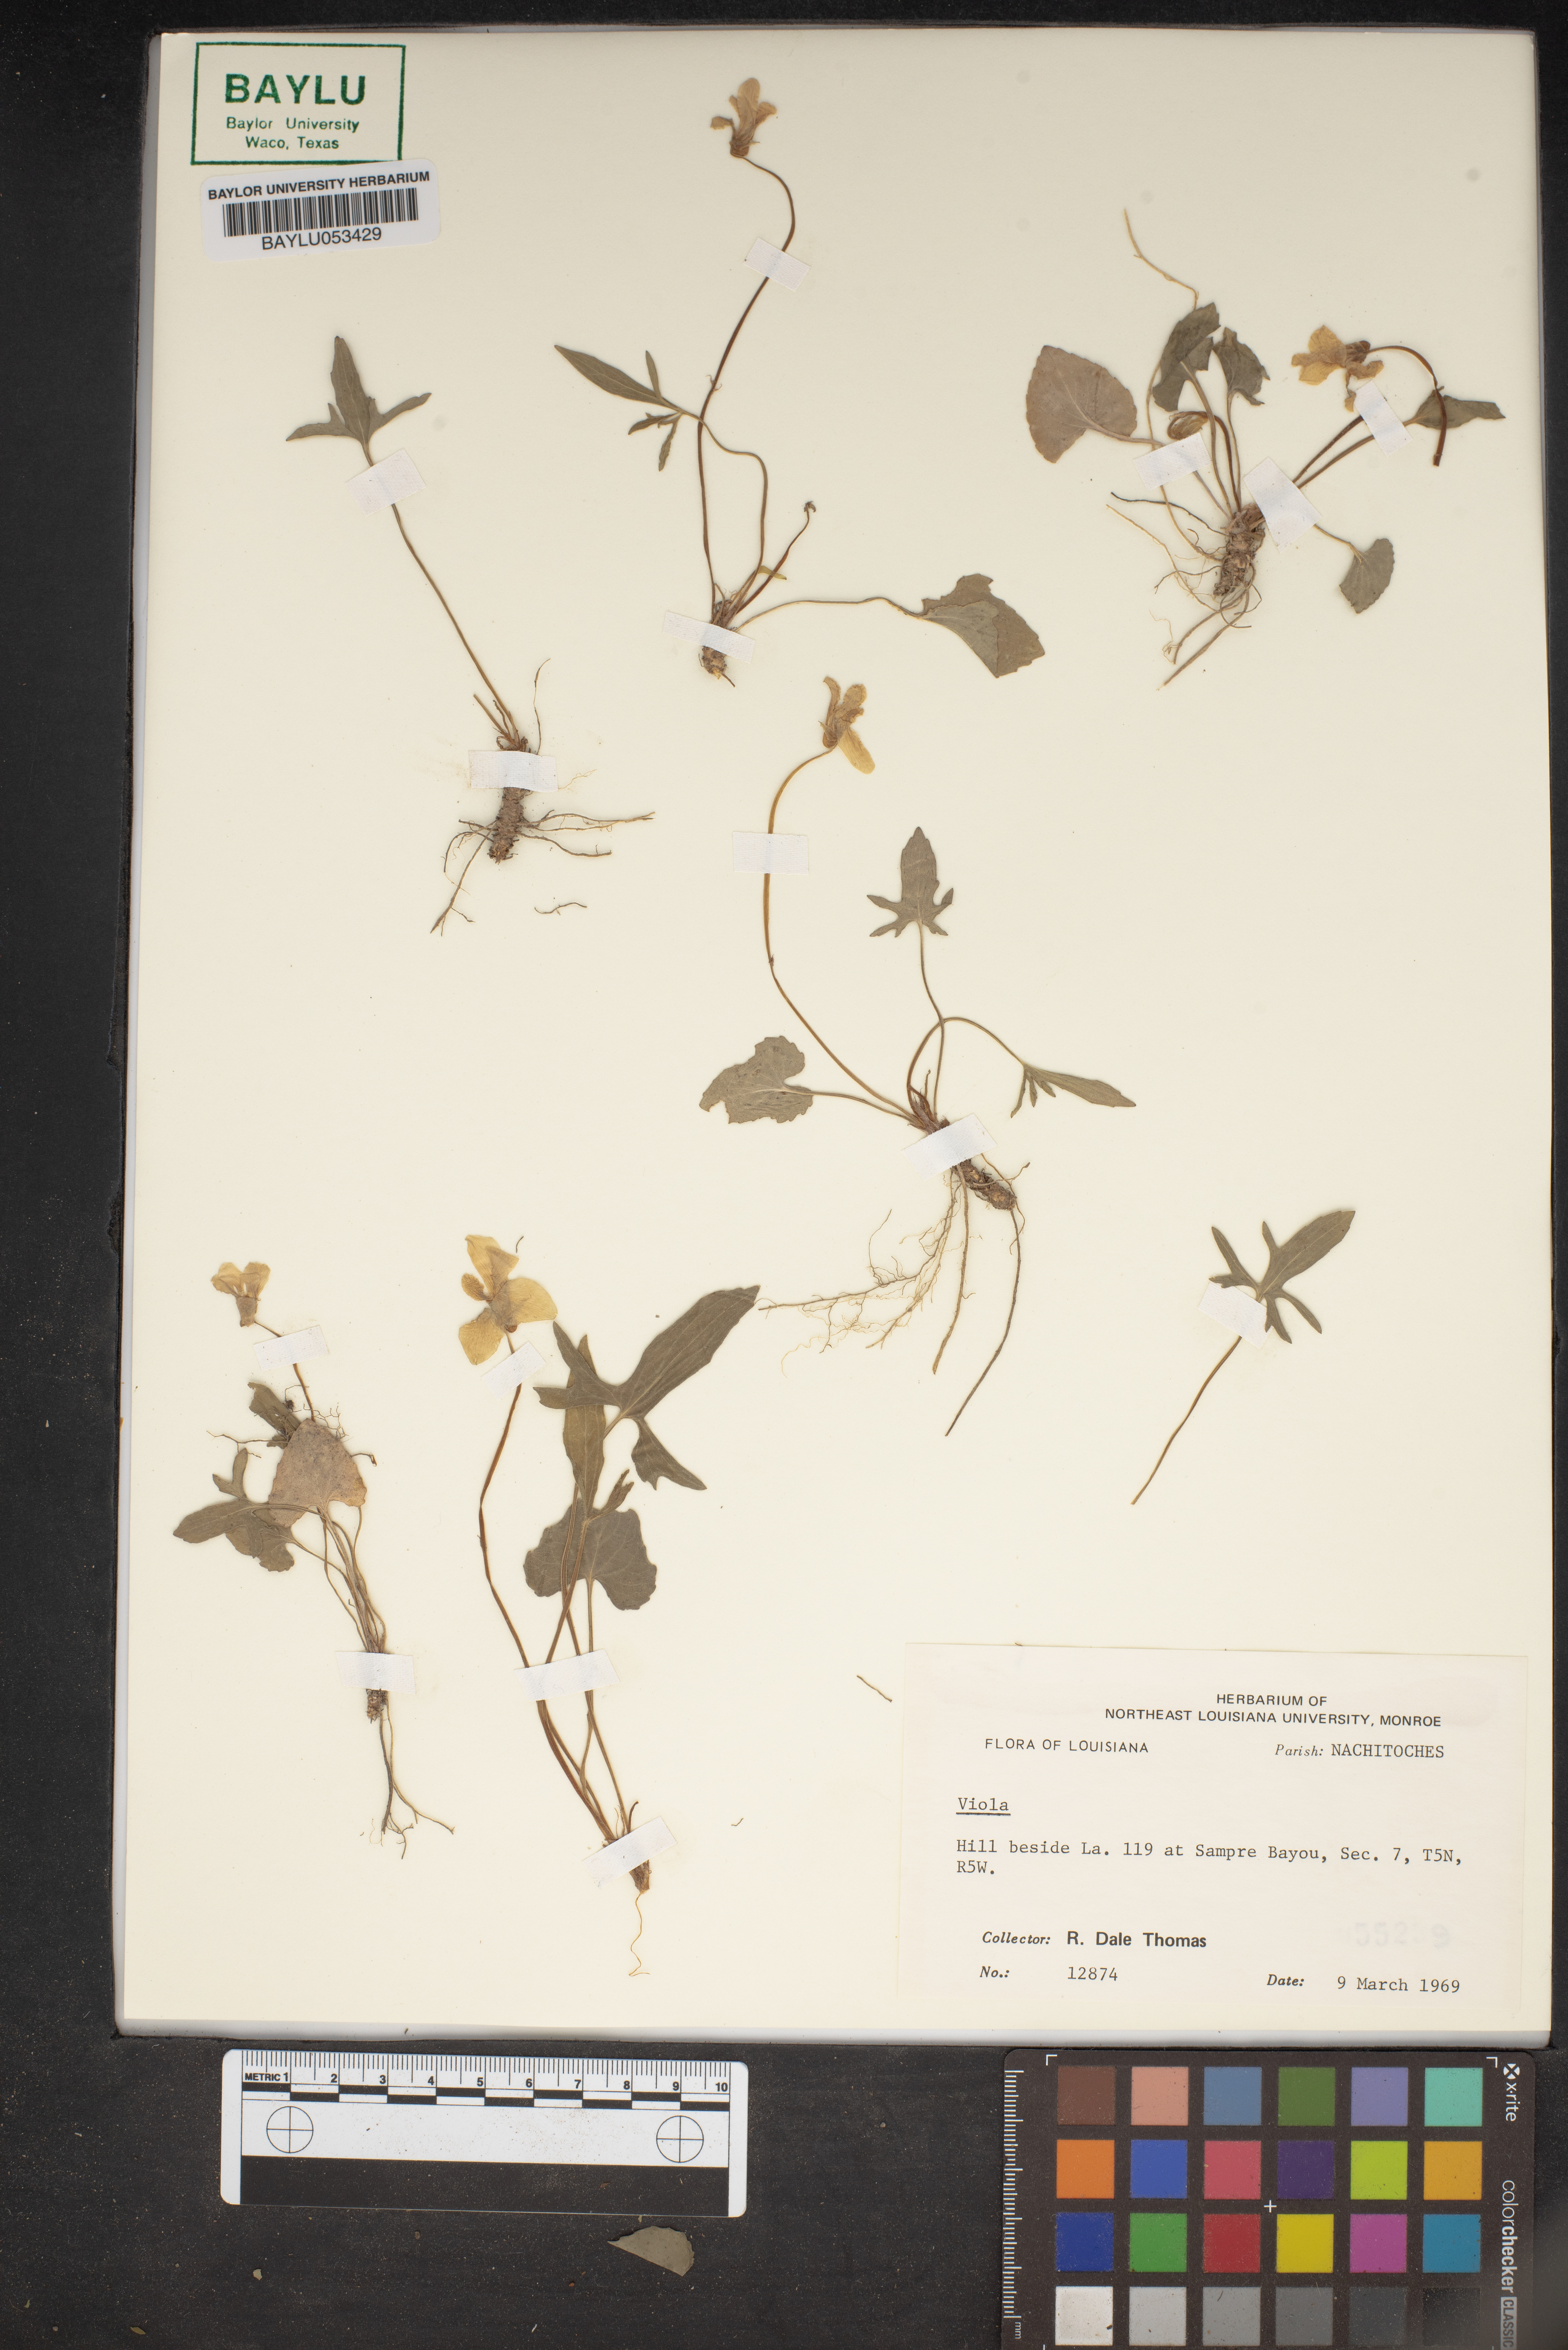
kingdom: Plantae
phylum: Tracheophyta
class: Magnoliopsida
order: Malpighiales
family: Violaceae
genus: Viola
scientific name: Viola
